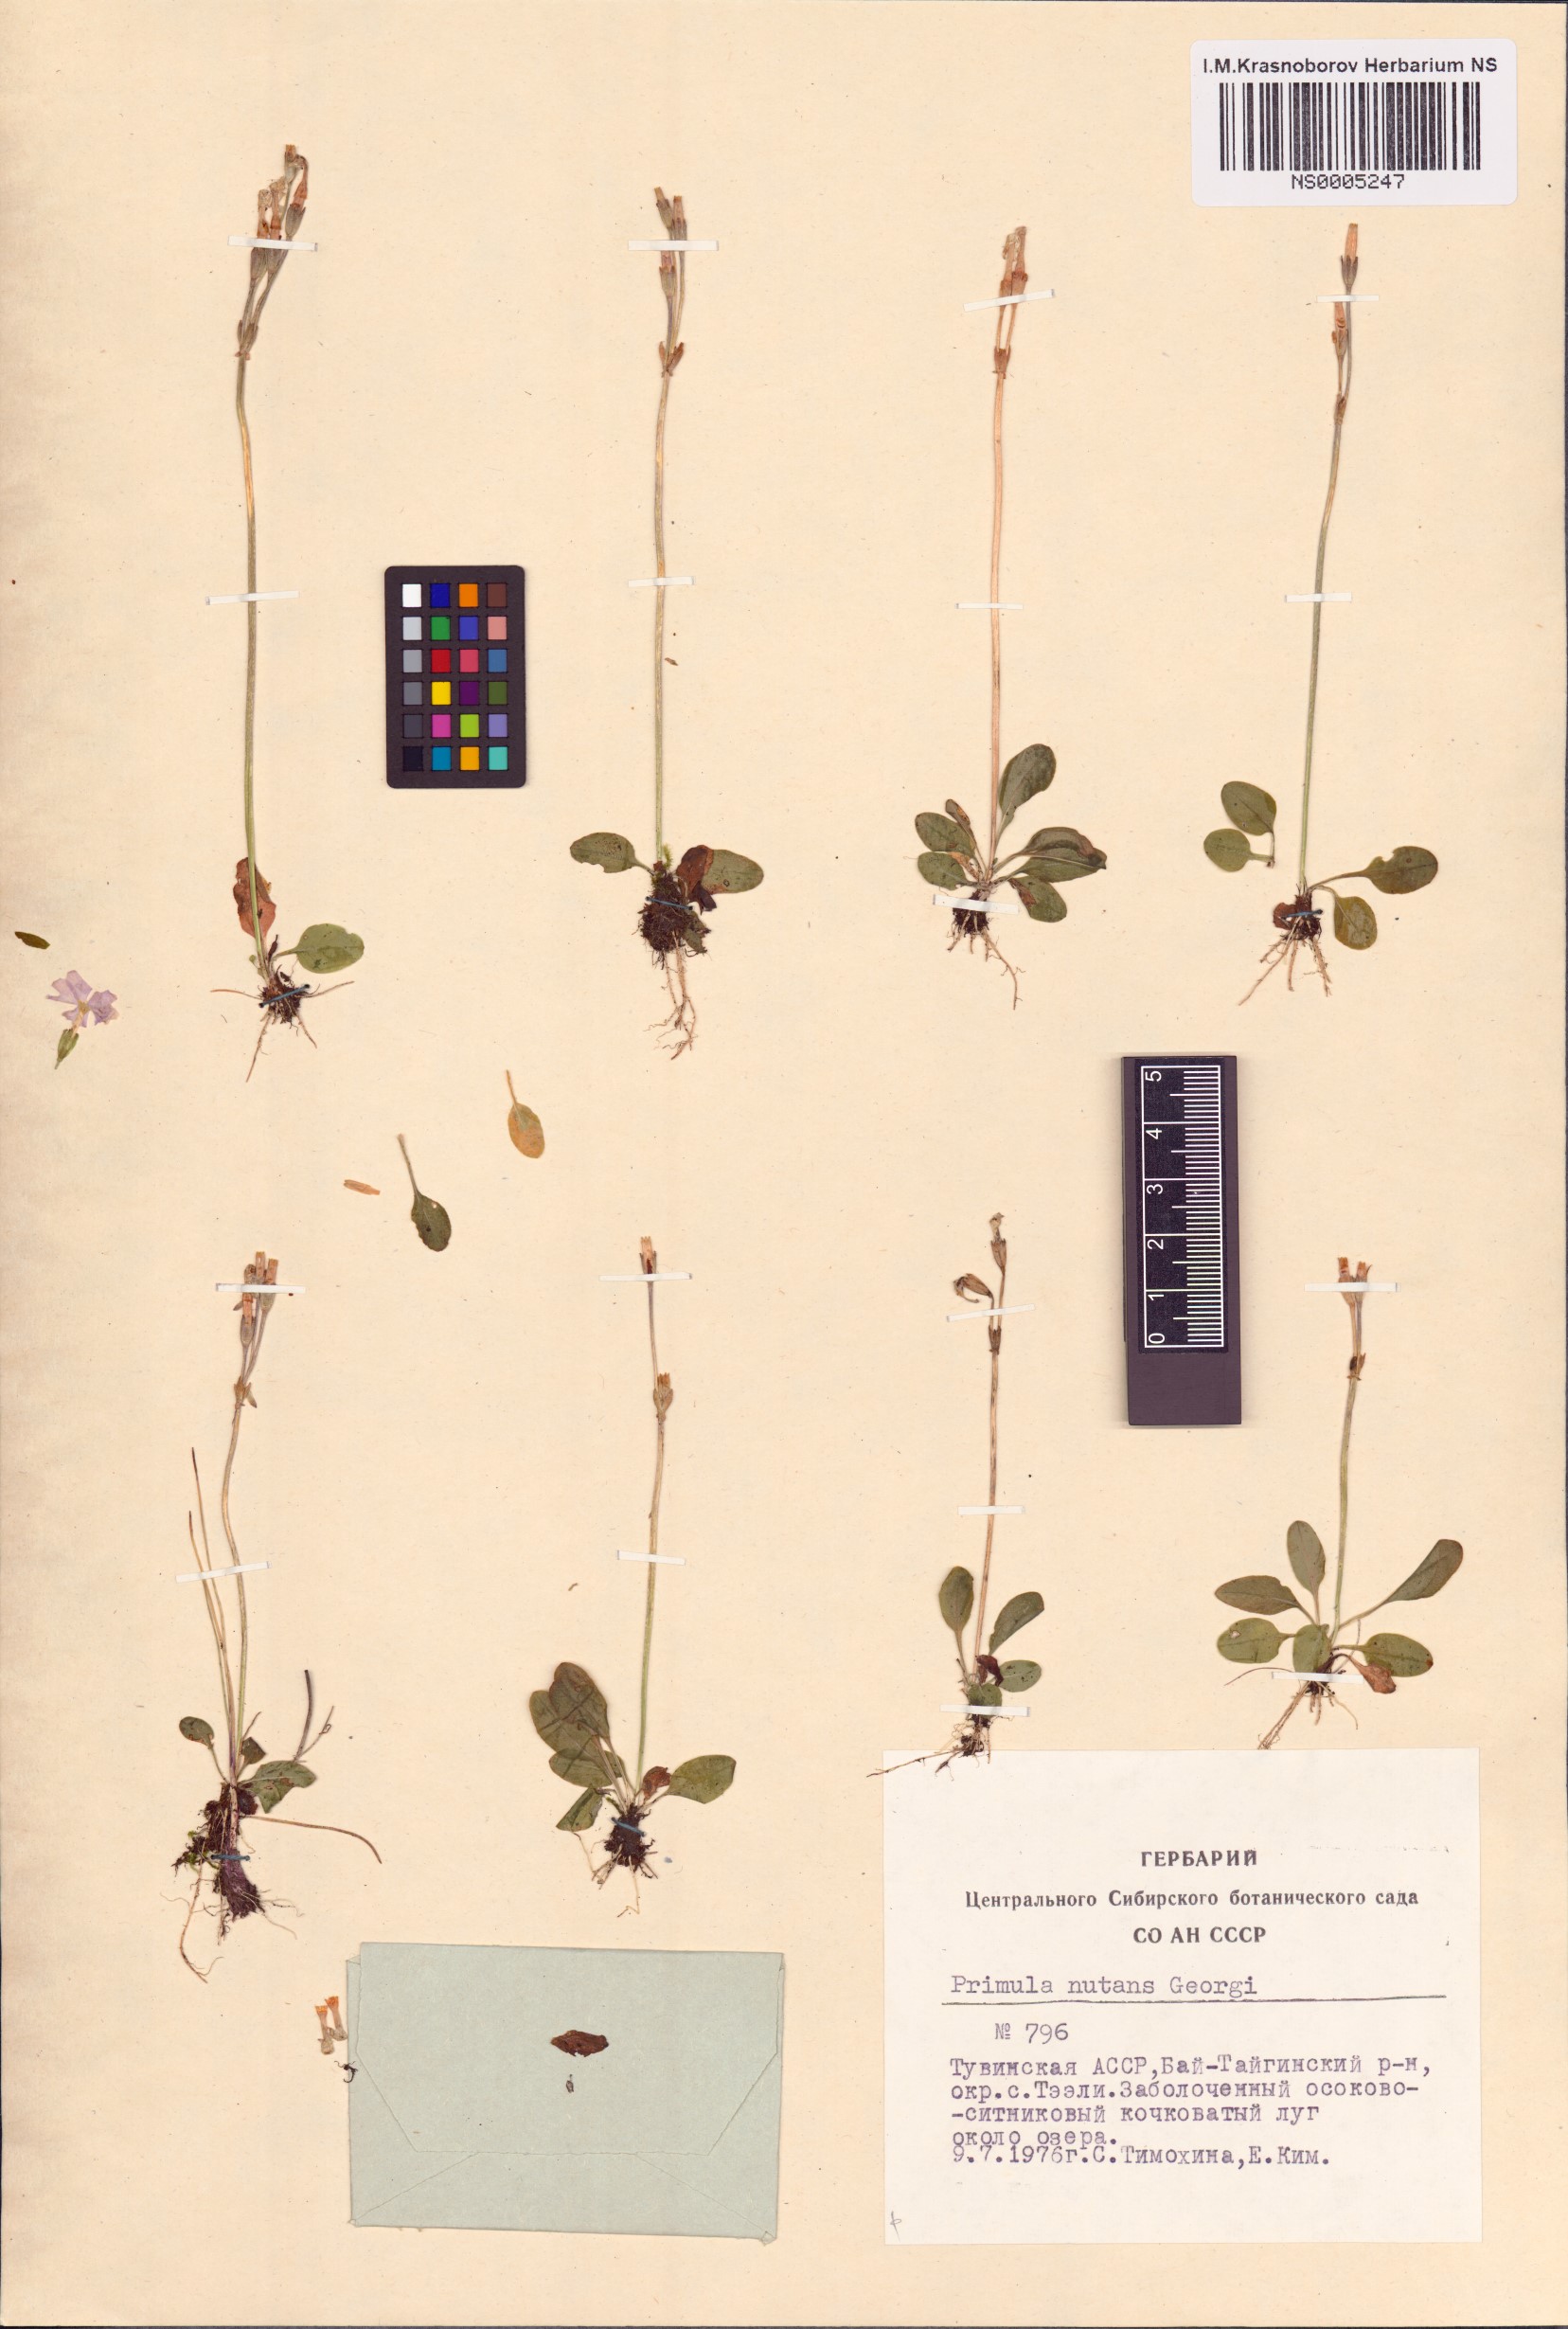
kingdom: Plantae
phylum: Tracheophyta
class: Magnoliopsida
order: Ericales
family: Primulaceae
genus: Primula
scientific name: Primula nutans
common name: Siberian primrose
